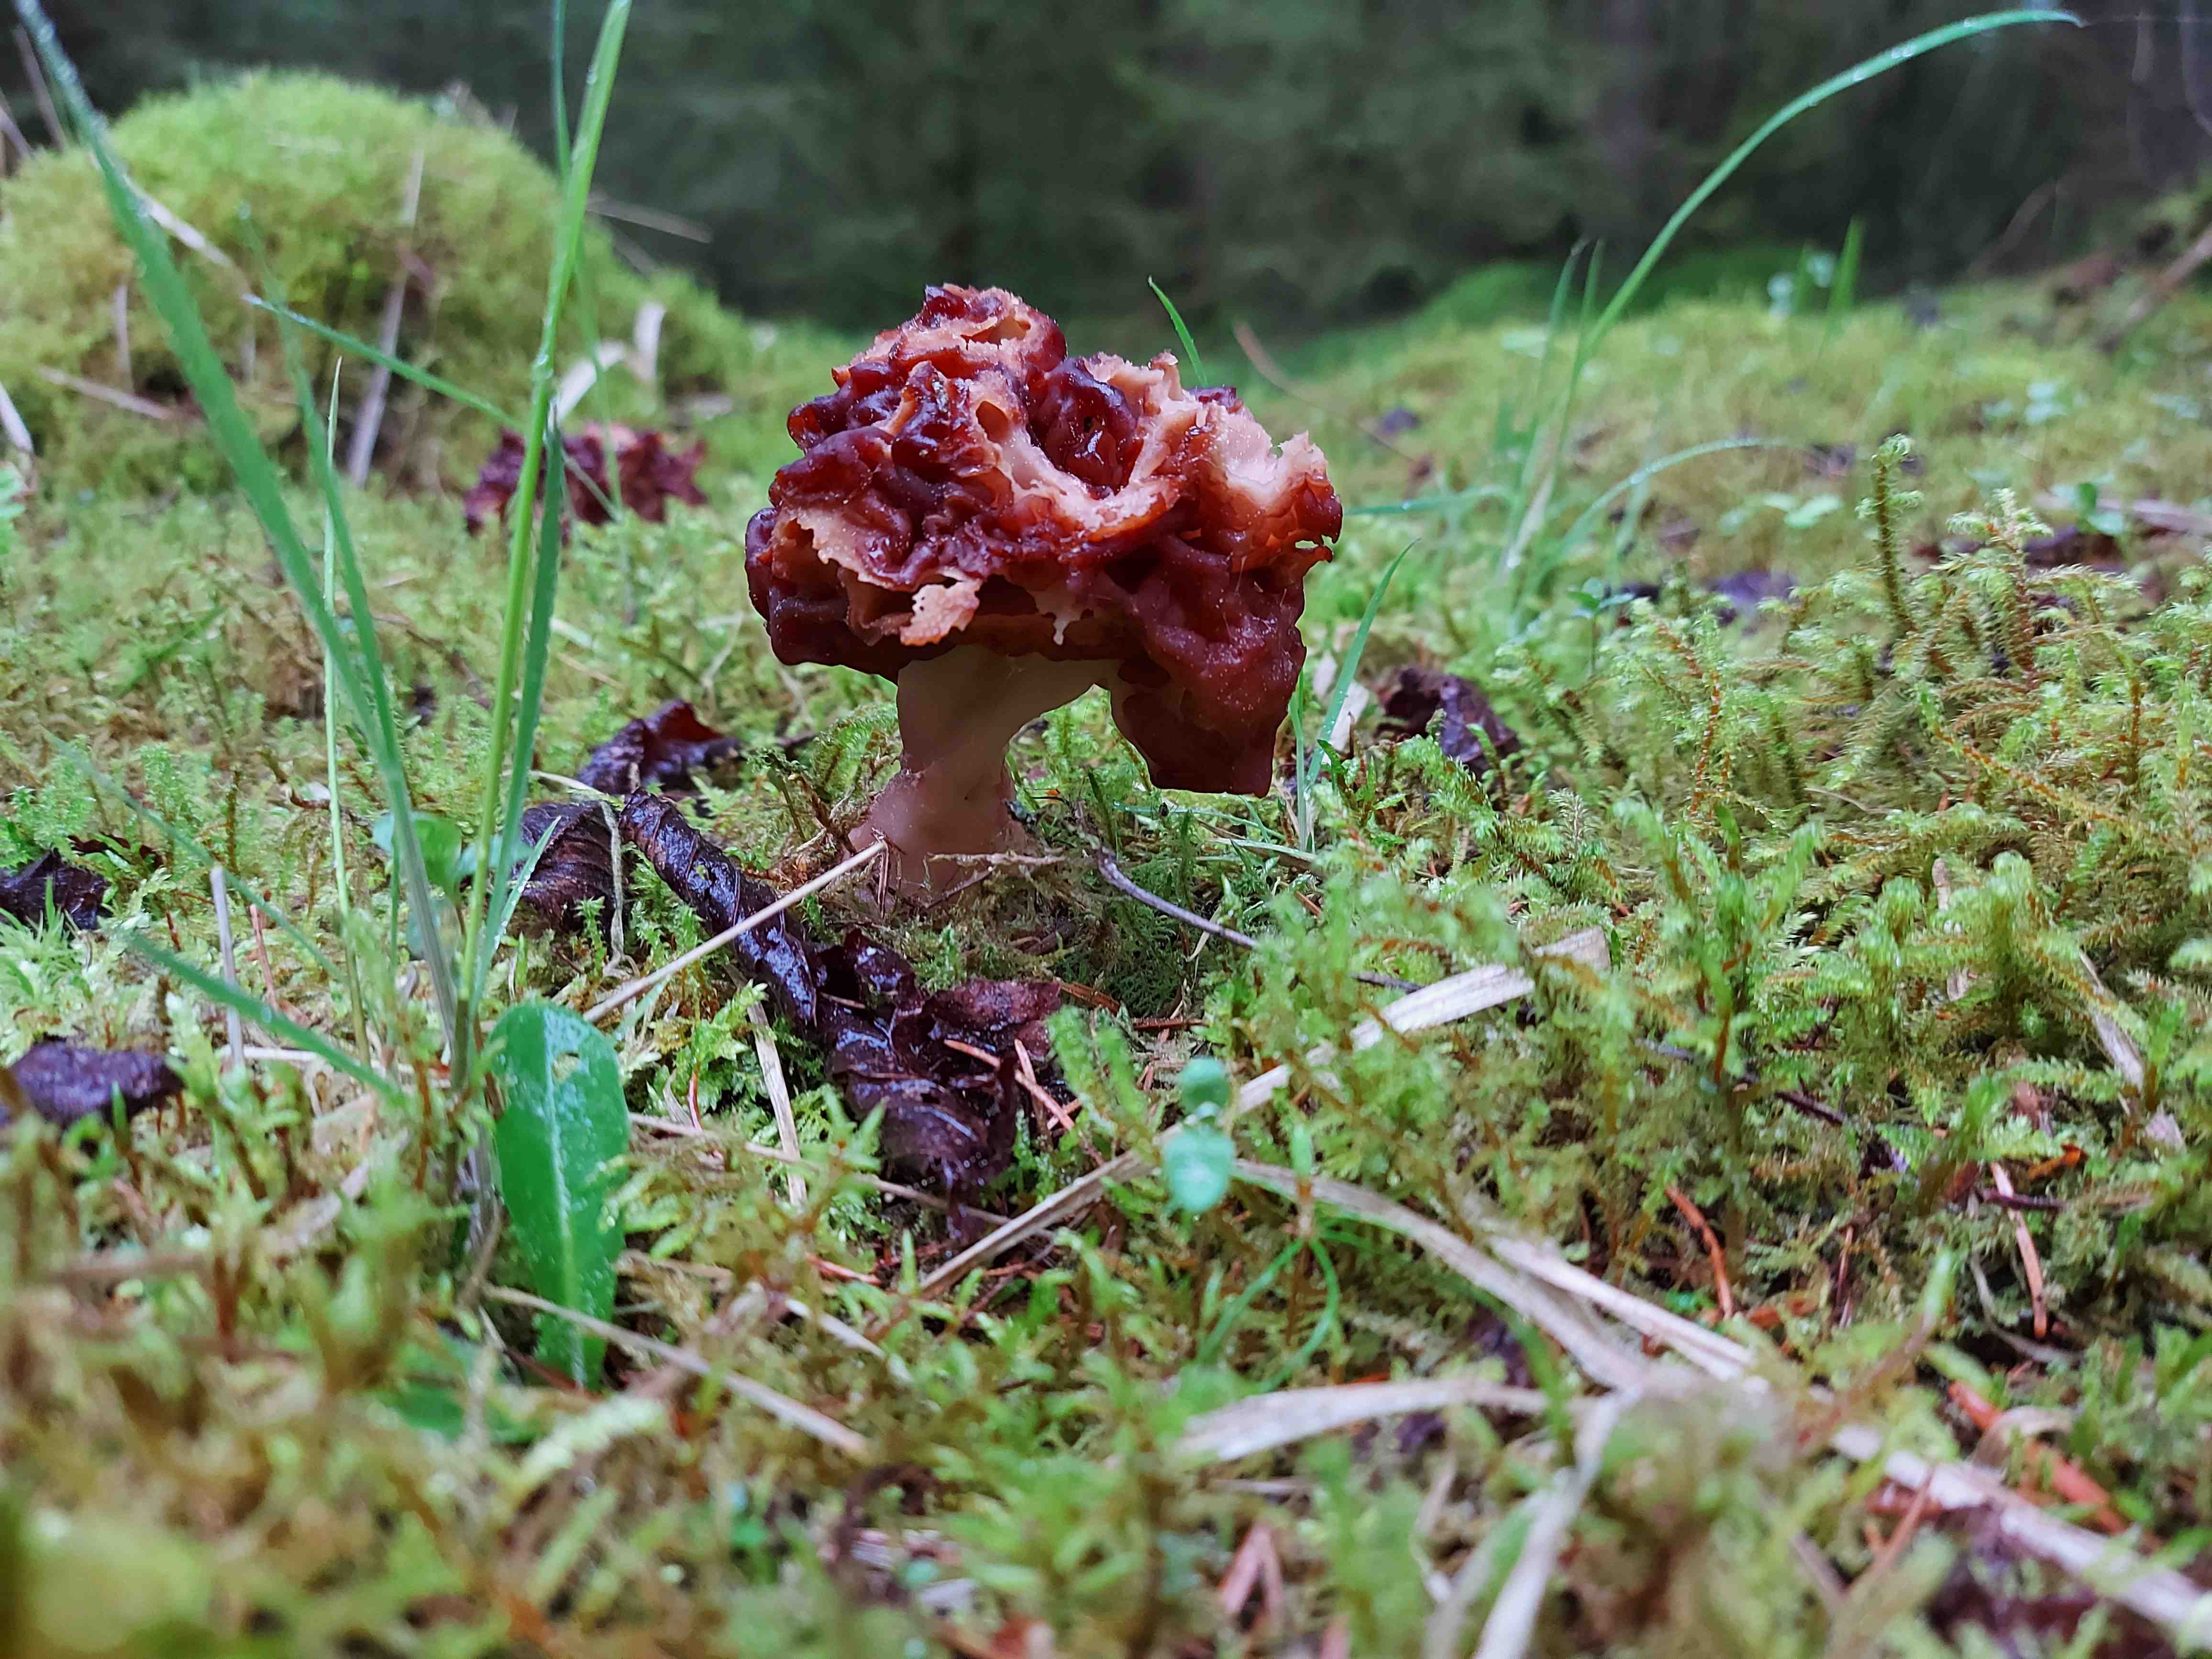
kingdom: Fungi
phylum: Ascomycota
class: Pezizomycetes
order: Pezizales
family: Discinaceae
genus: Gyromitra
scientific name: Gyromitra esculenta
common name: ægte stenmorkel
